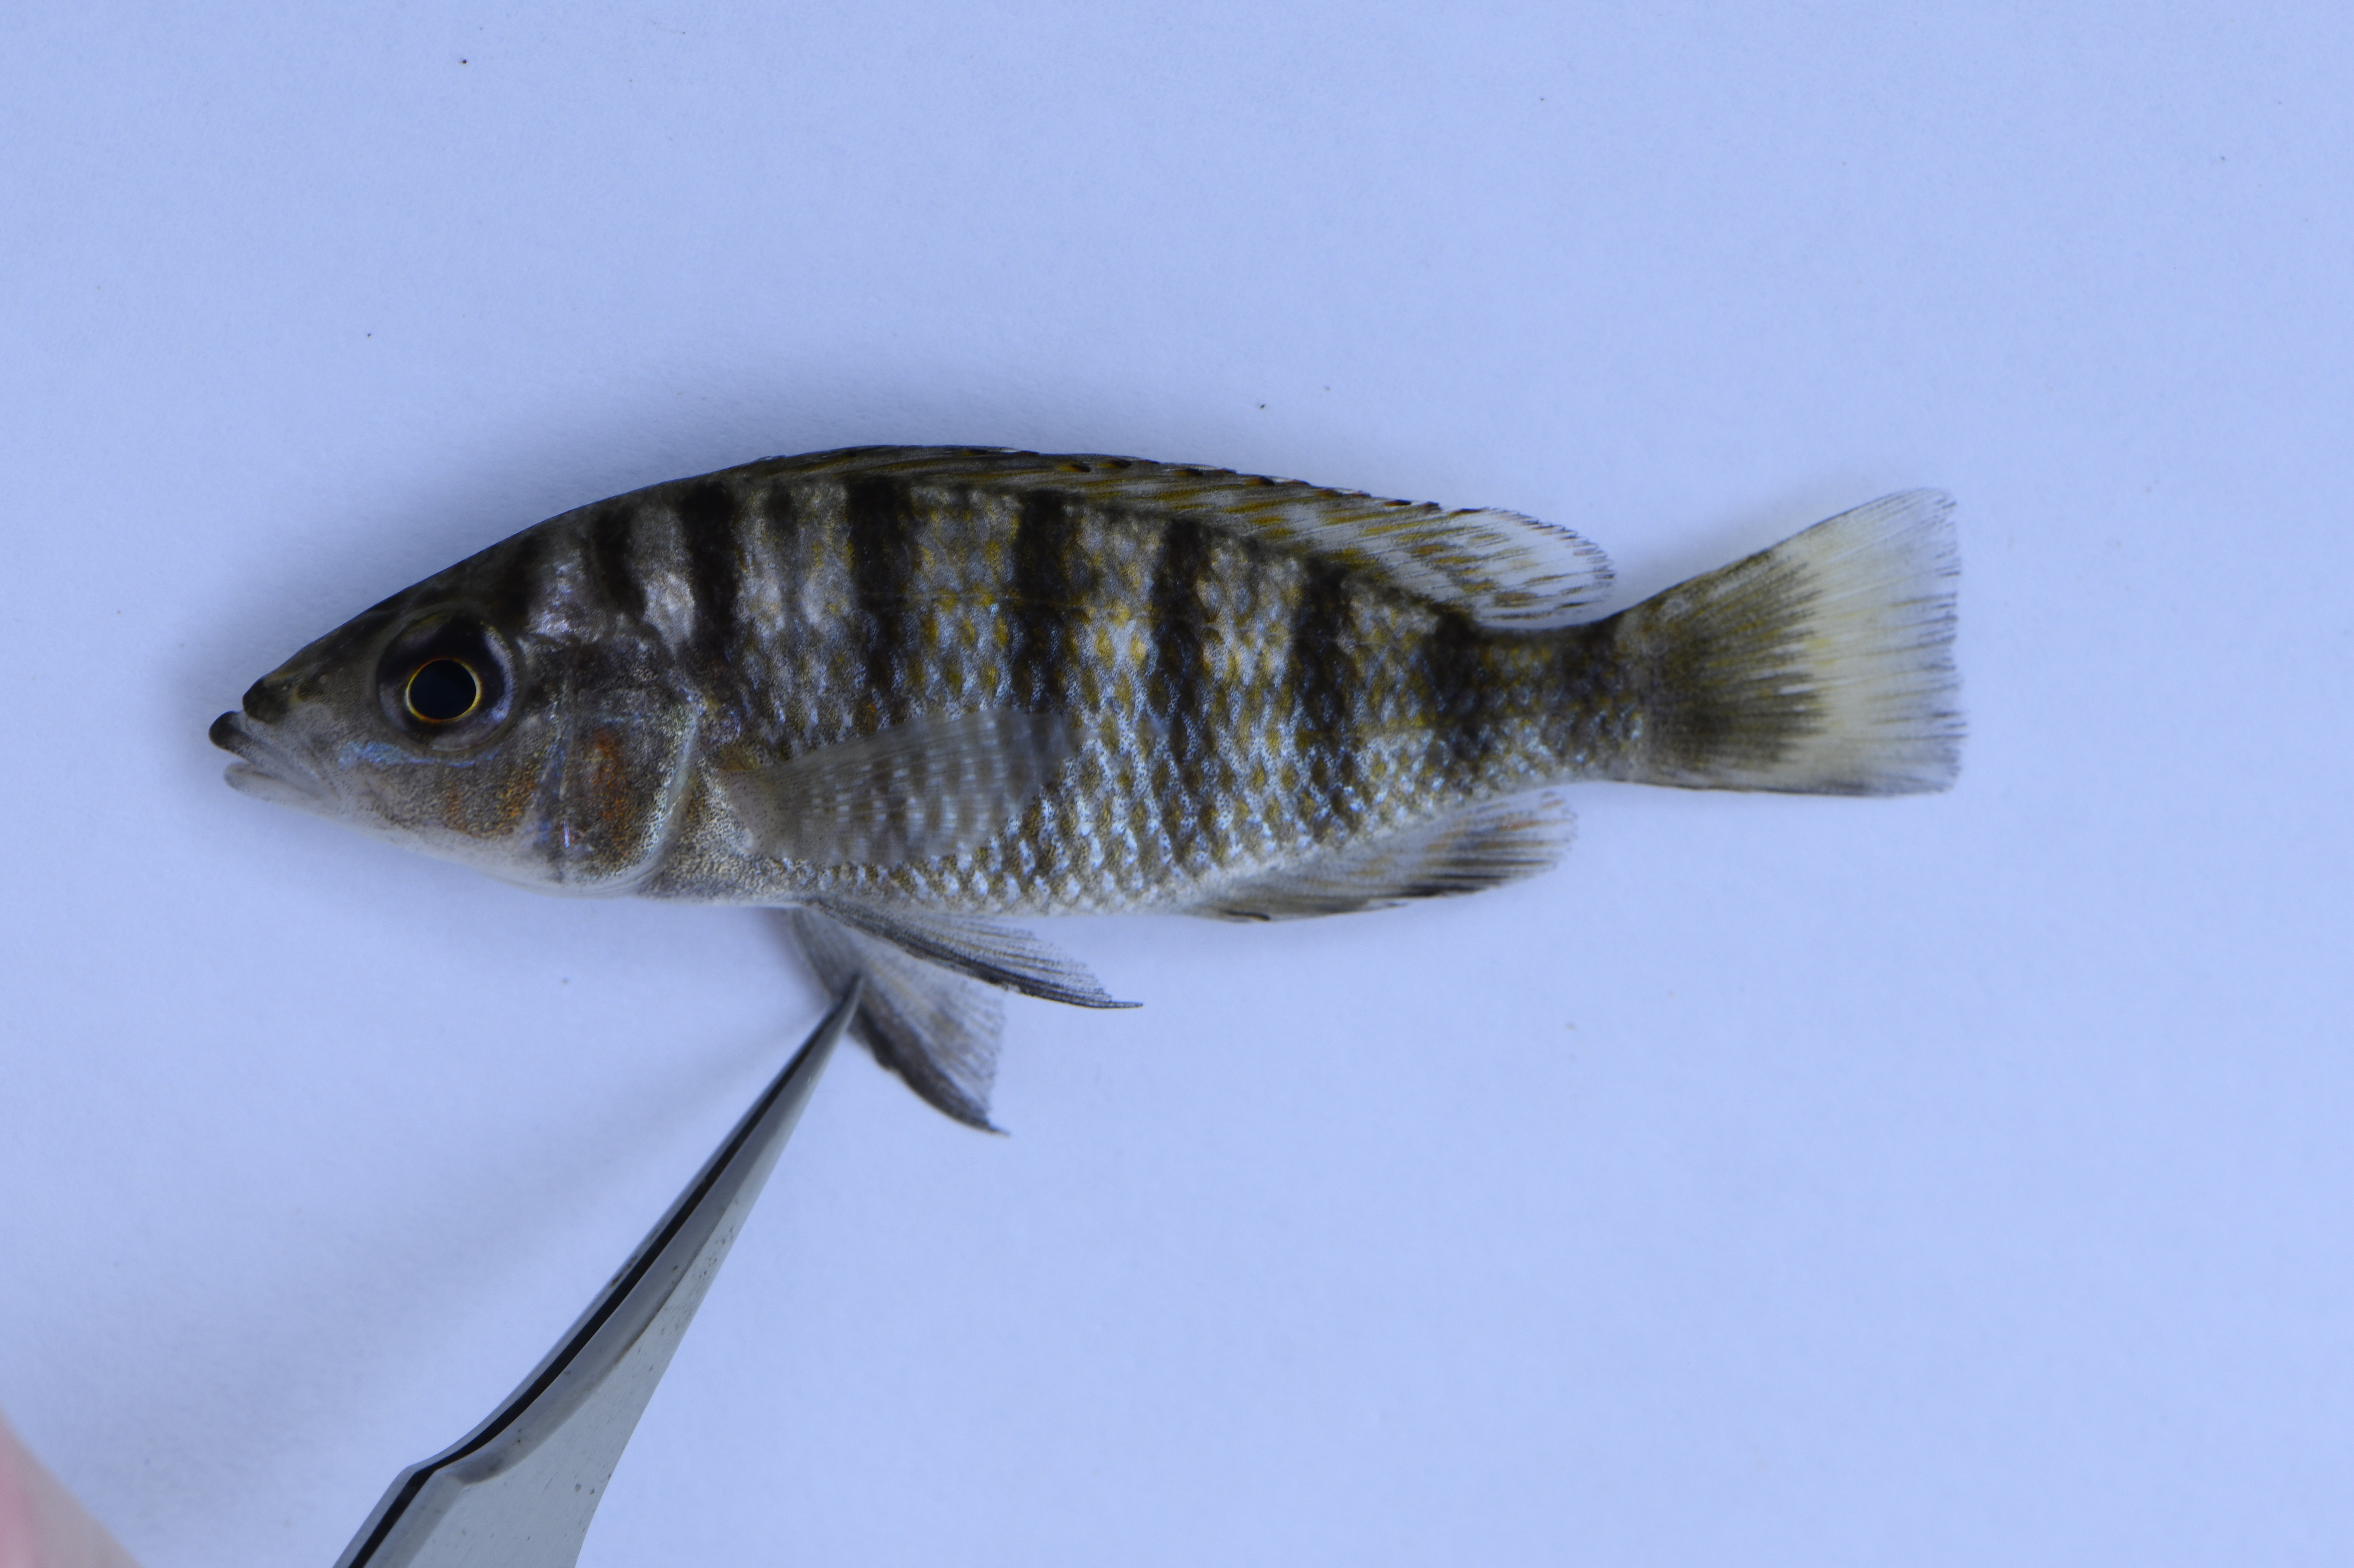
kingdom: Animalia
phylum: Chordata
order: Perciformes
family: Cichlidae
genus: Gnathochromis
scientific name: Gnathochromis pfefferi
